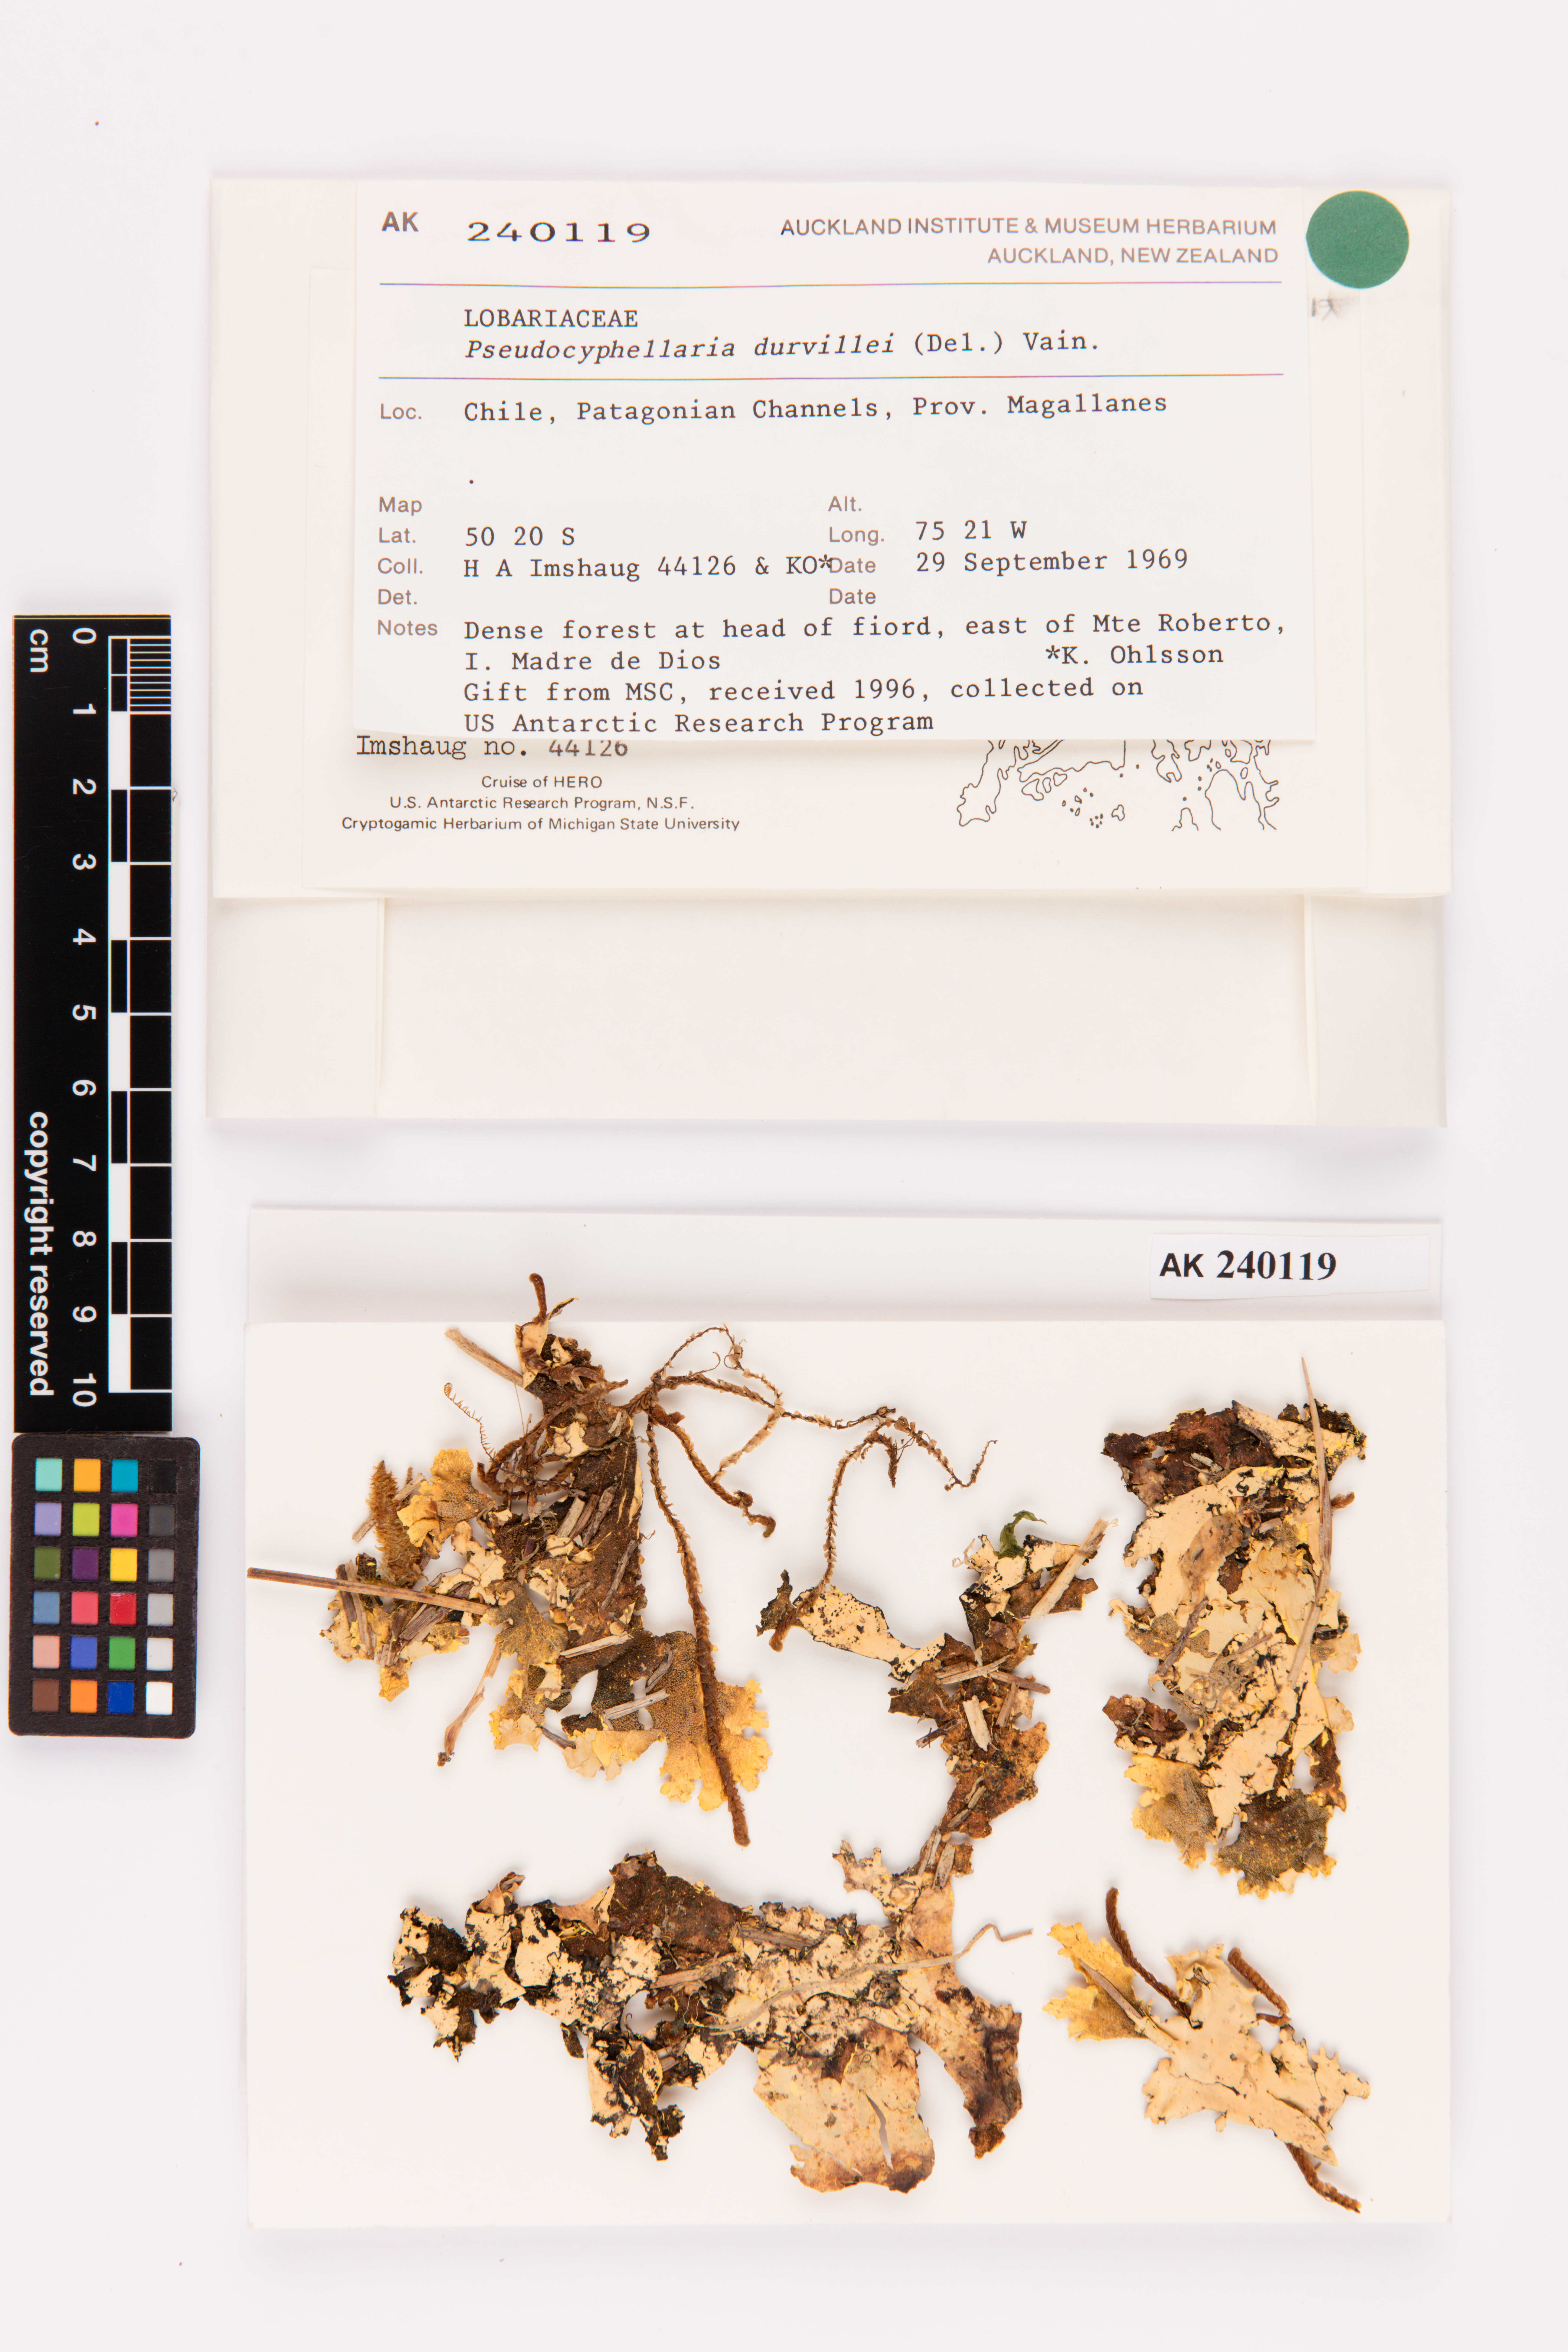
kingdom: Fungi
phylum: Ascomycota
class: Lecanoromycetes
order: Peltigerales
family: Lobariaceae
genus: Yarrumia
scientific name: Yarrumia coronata
